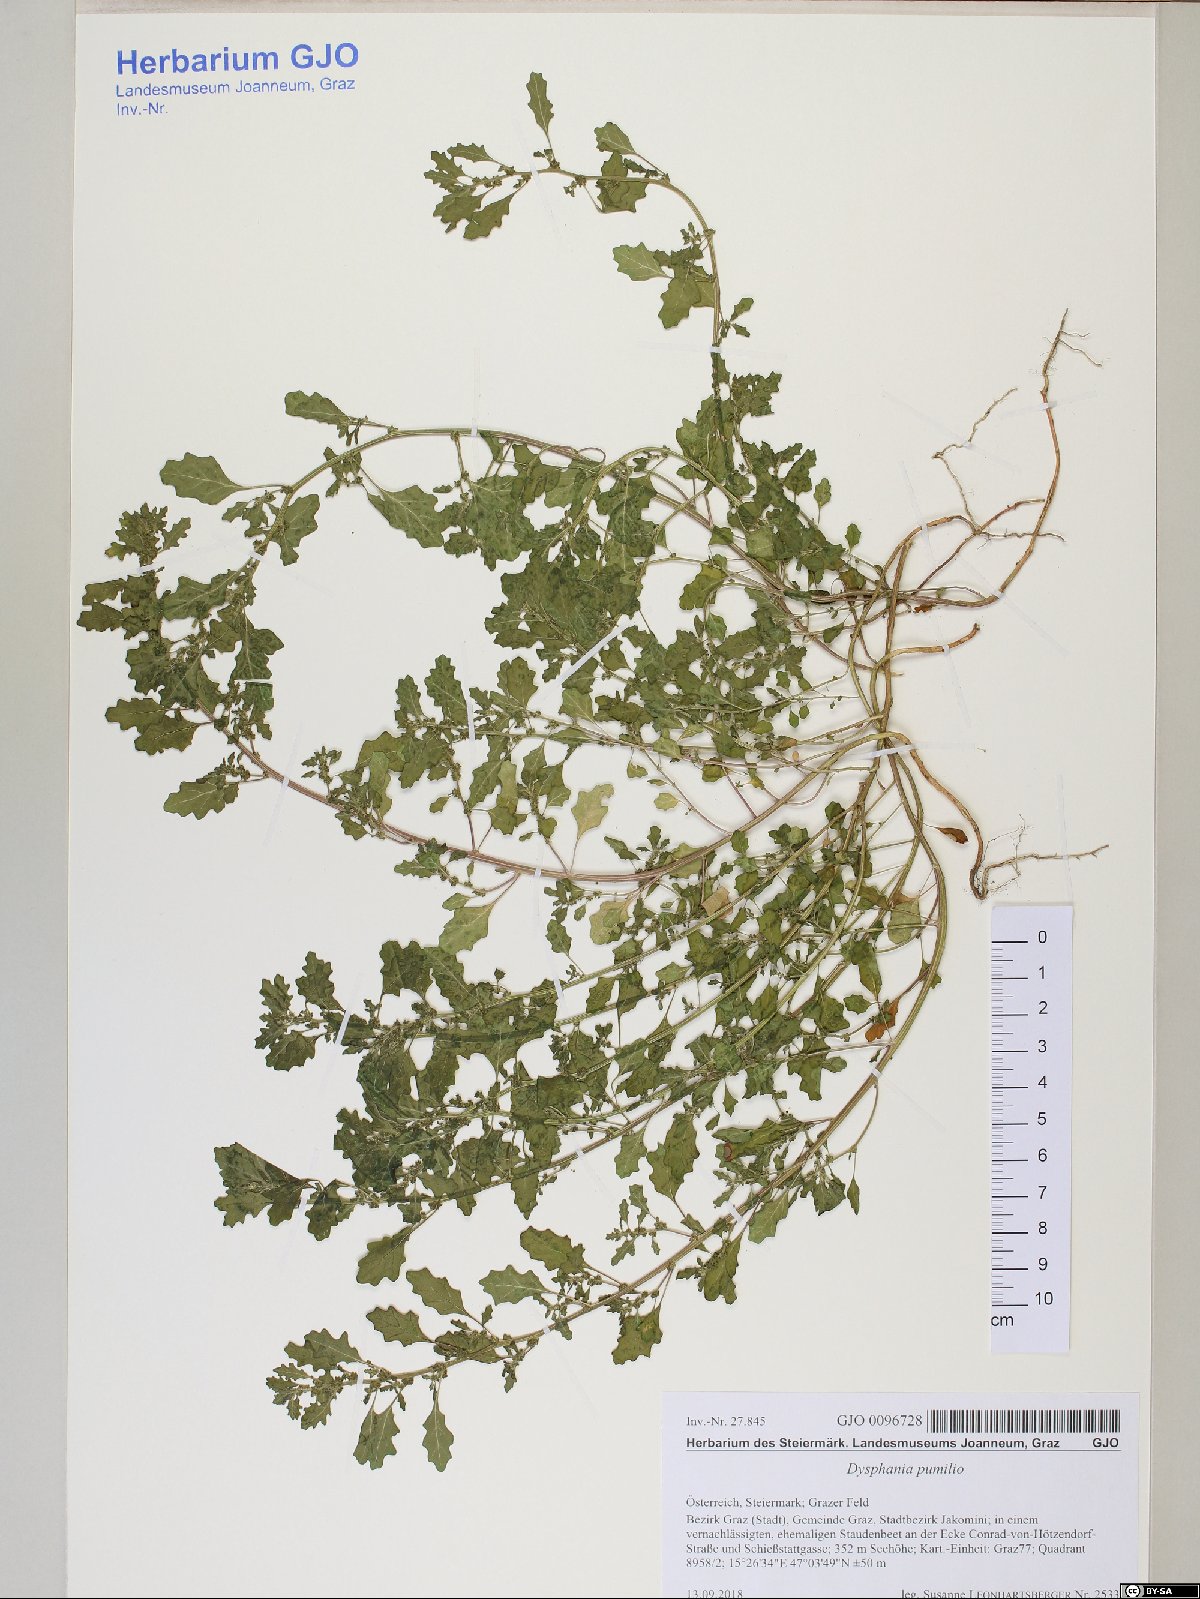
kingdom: Plantae
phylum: Tracheophyta
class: Magnoliopsida
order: Caryophyllales
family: Amaranthaceae
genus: Dysphania
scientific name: Dysphania pumilio
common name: Clammy goosefoot
